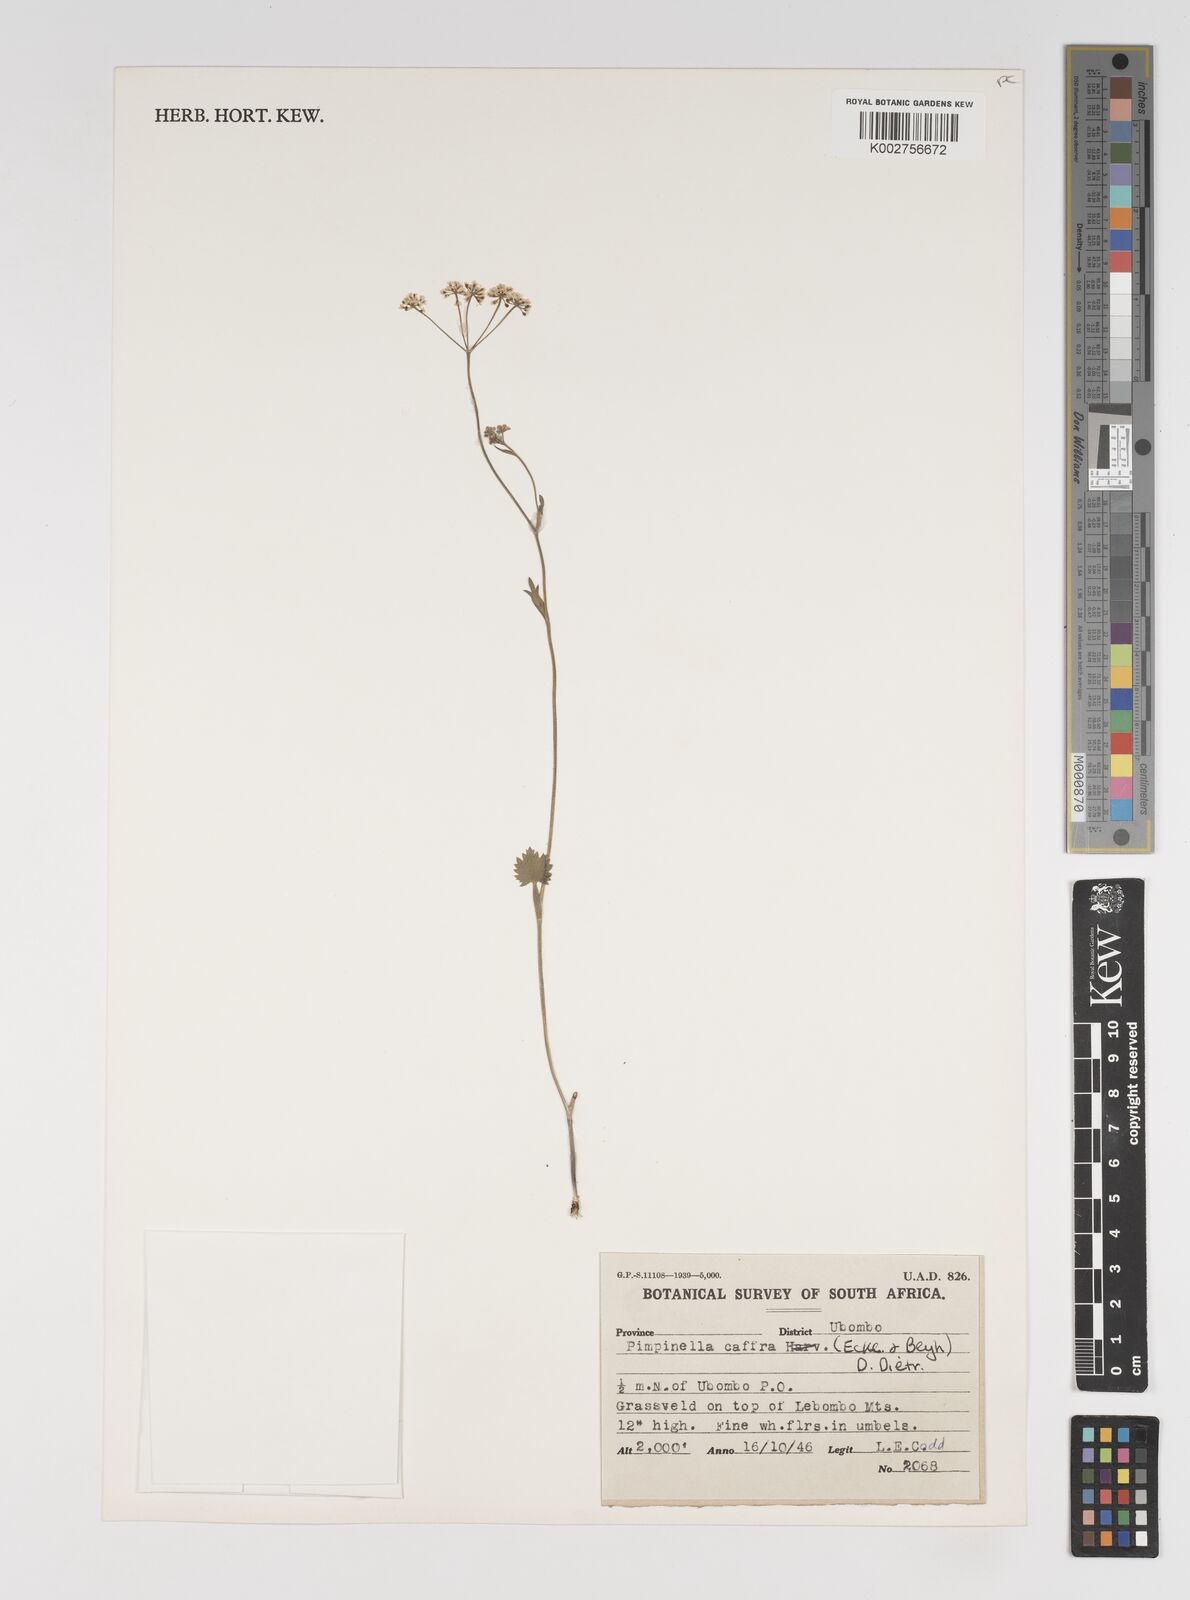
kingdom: Plantae
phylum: Tracheophyta
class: Magnoliopsida
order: Apiales
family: Apiaceae
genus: Pimpinella
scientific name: Pimpinella
